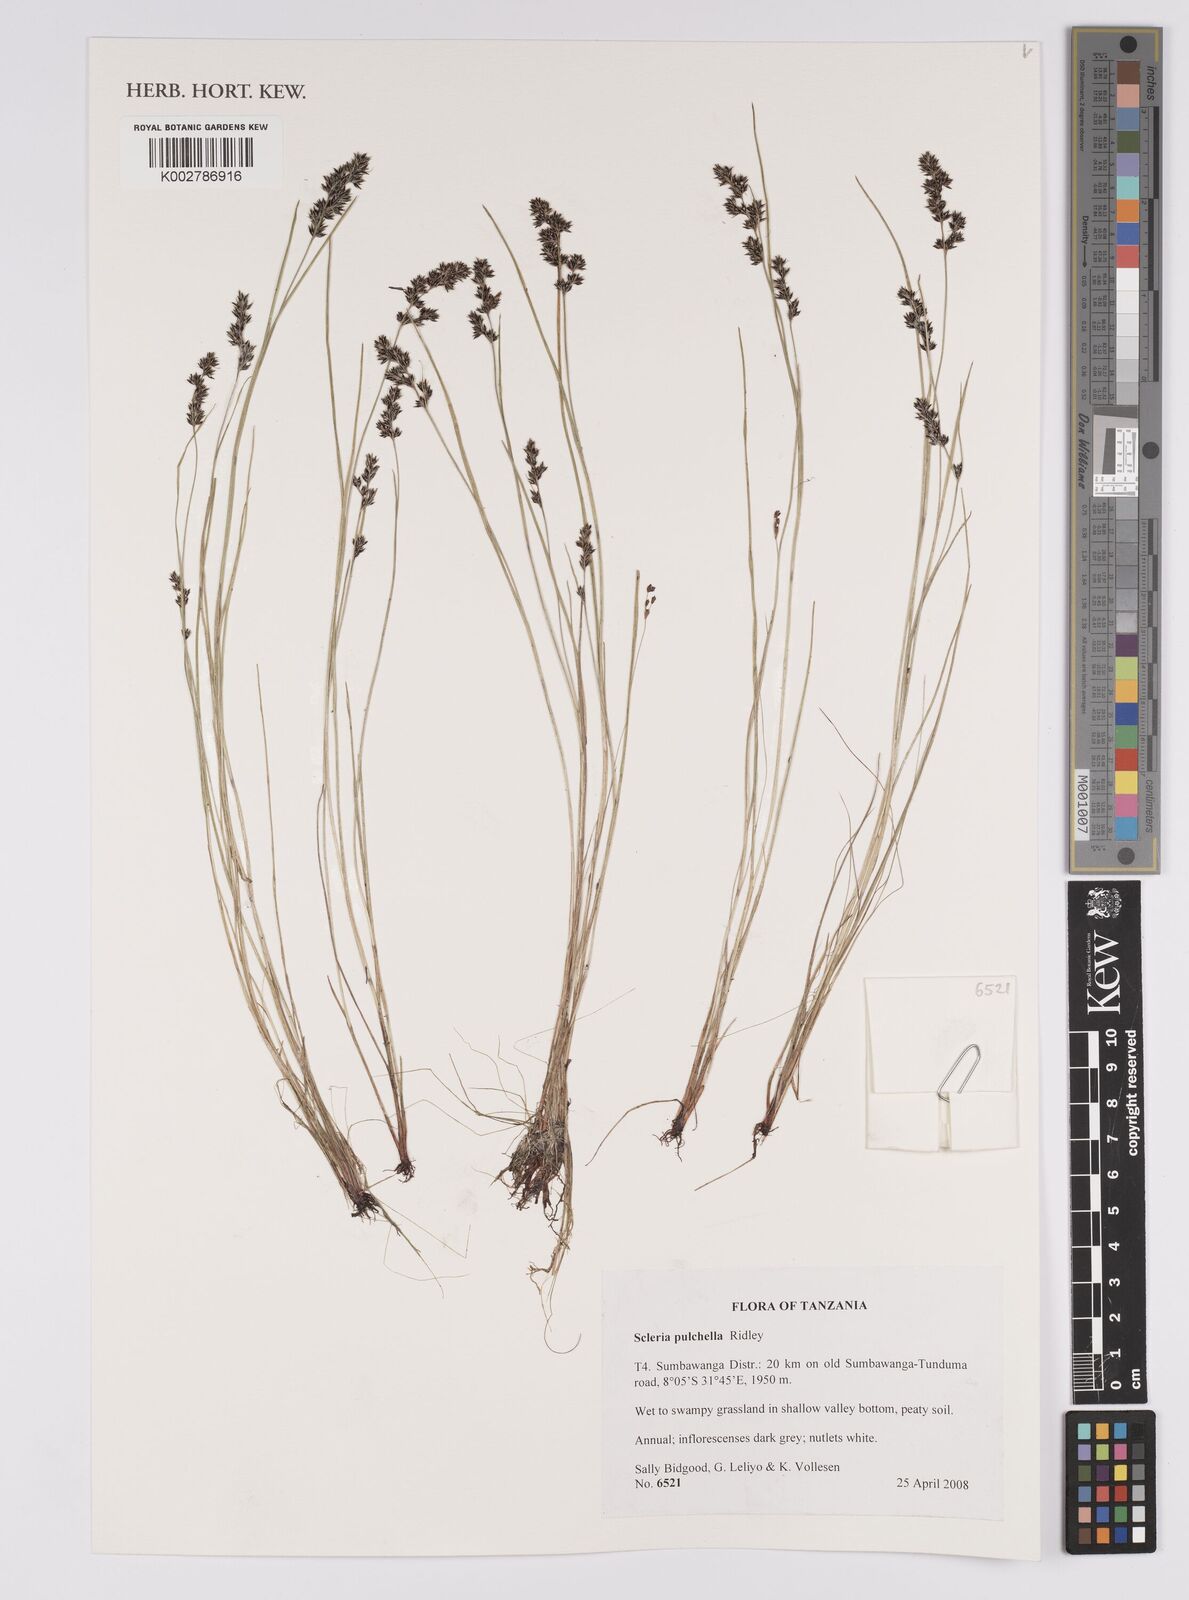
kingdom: Plantae
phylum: Tracheophyta
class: Liliopsida
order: Poales
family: Cyperaceae
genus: Scleria
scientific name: Scleria pulchella
